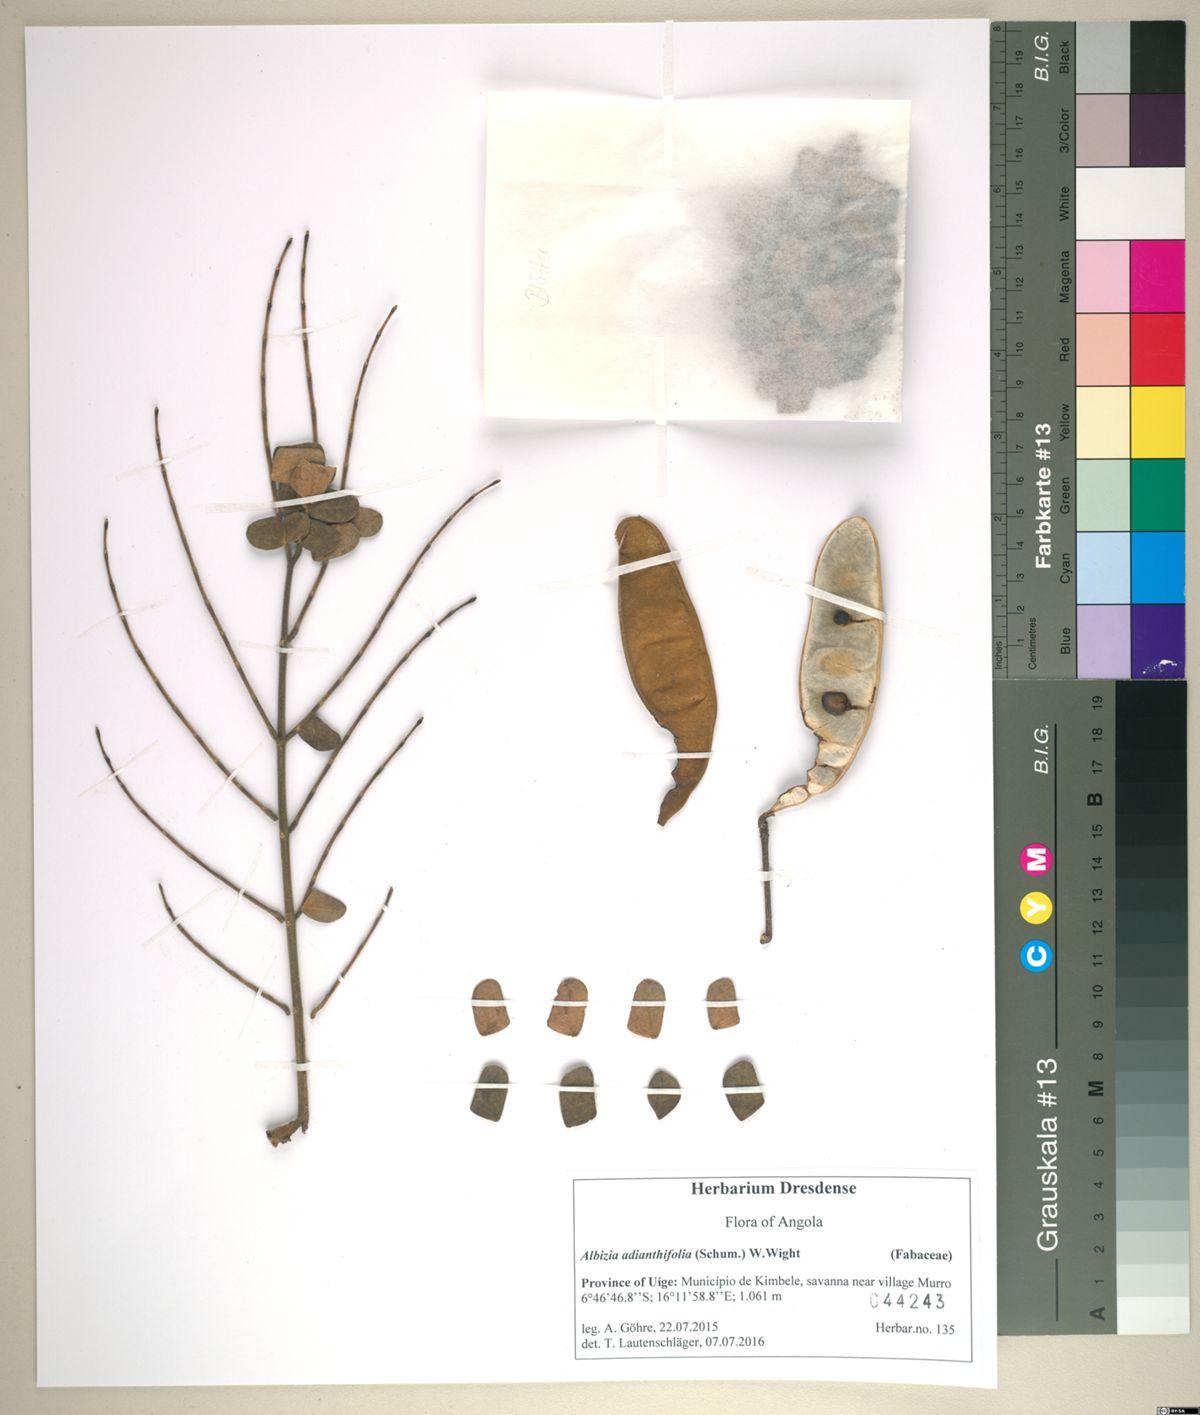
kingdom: Plantae
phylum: Tracheophyta
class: Magnoliopsida
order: Fabales
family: Fabaceae
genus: Albizia
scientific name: Albizia adianthifolia
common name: West african albizia
